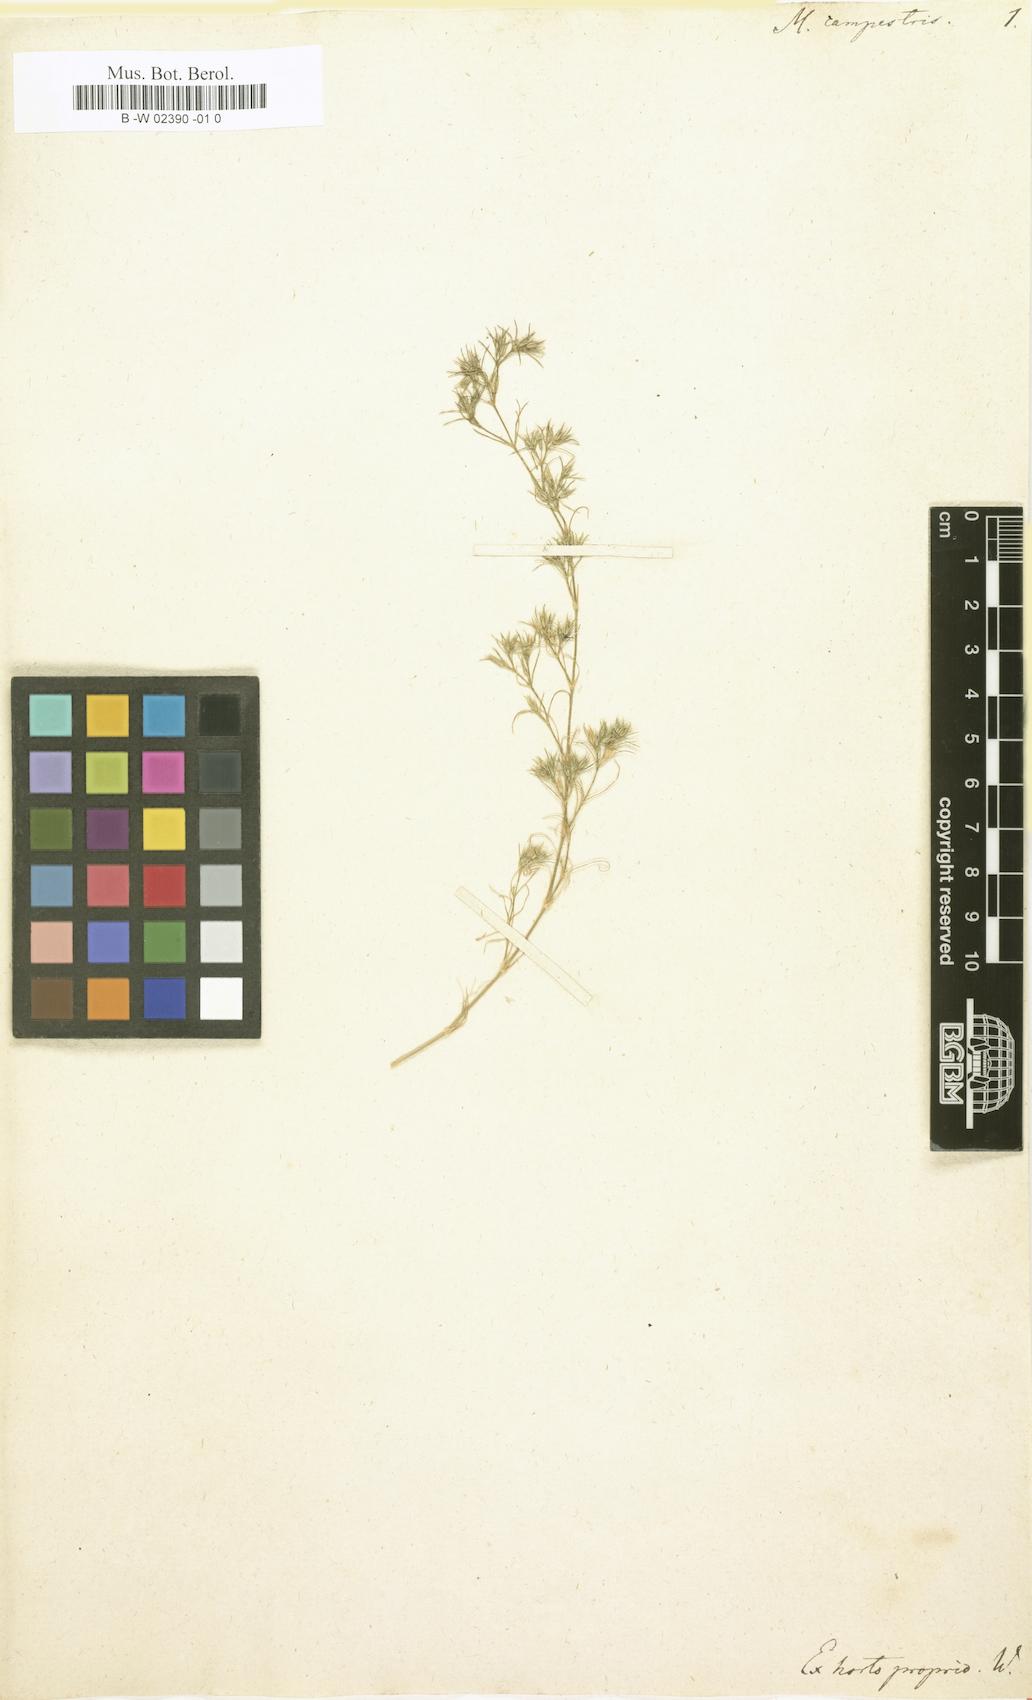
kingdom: Plantae
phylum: Tracheophyta
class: Magnoliopsida
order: Caryophyllales
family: Caryophyllaceae
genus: Minuartia
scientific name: Minuartia campestris
